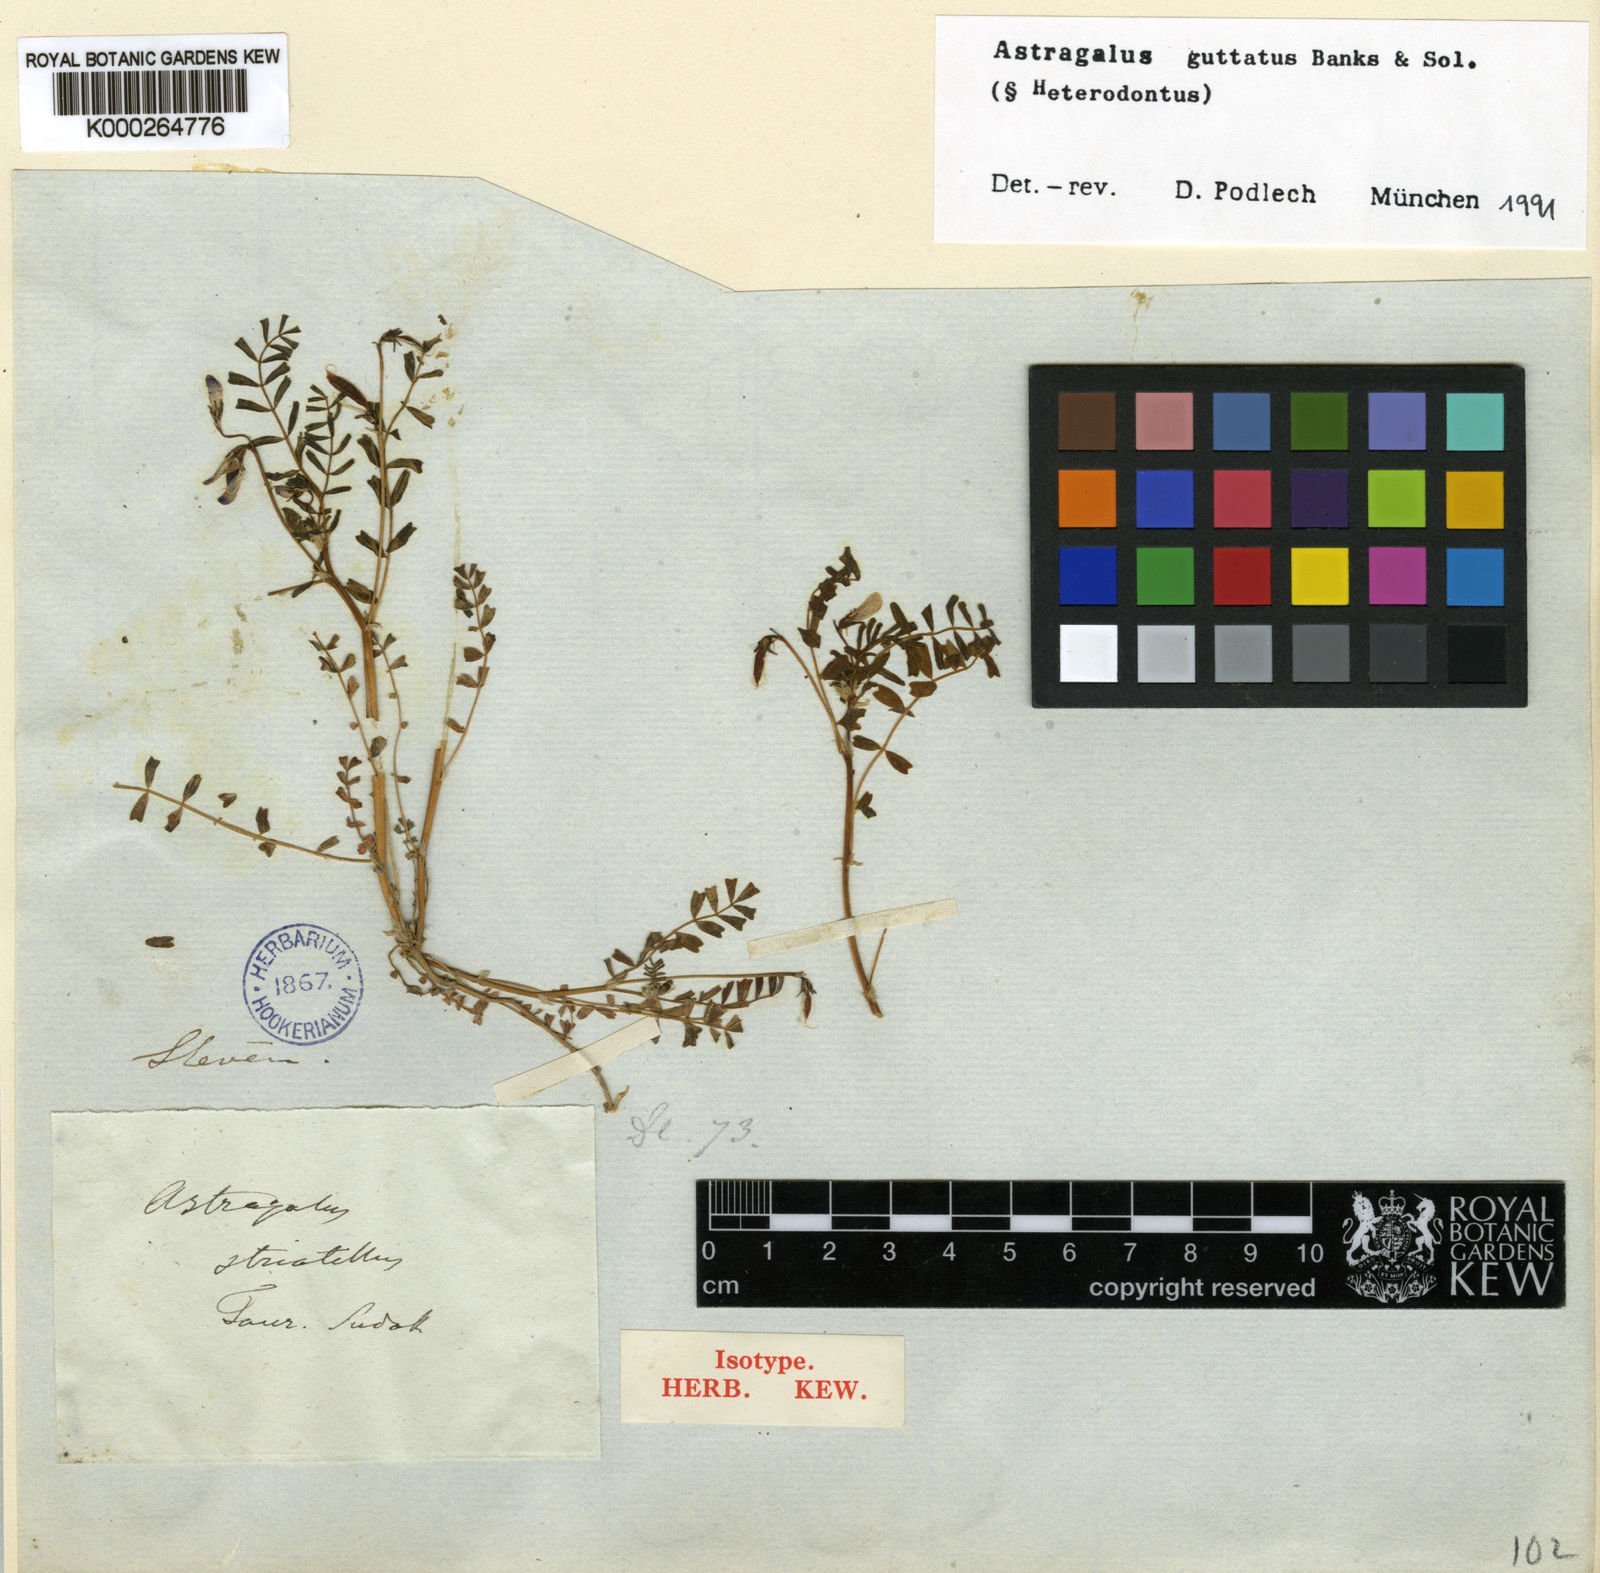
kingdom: Plantae
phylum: Tracheophyta
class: Magnoliopsida
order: Fabales
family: Fabaceae
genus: Astragalus
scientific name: Astragalus guttatus
